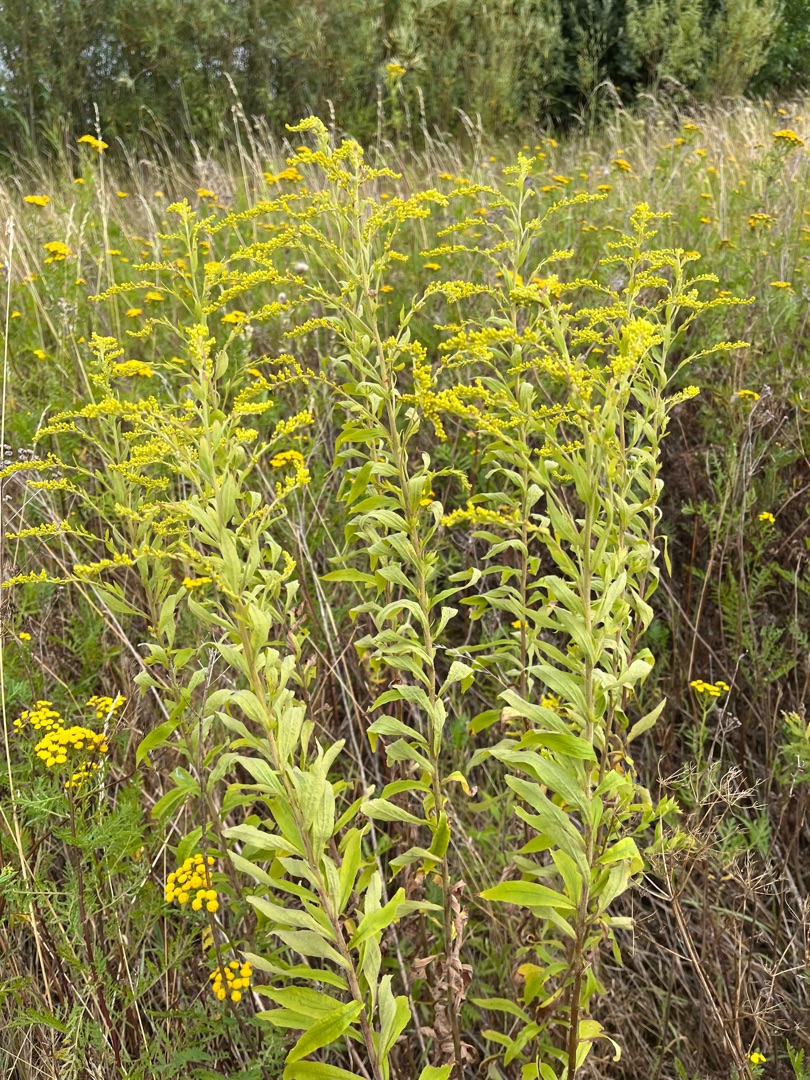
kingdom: Plantae
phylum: Tracheophyta
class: Magnoliopsida
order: Asterales
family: Asteraceae
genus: Solidago
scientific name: Solidago canadensis
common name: Kanadisk gyldenris
